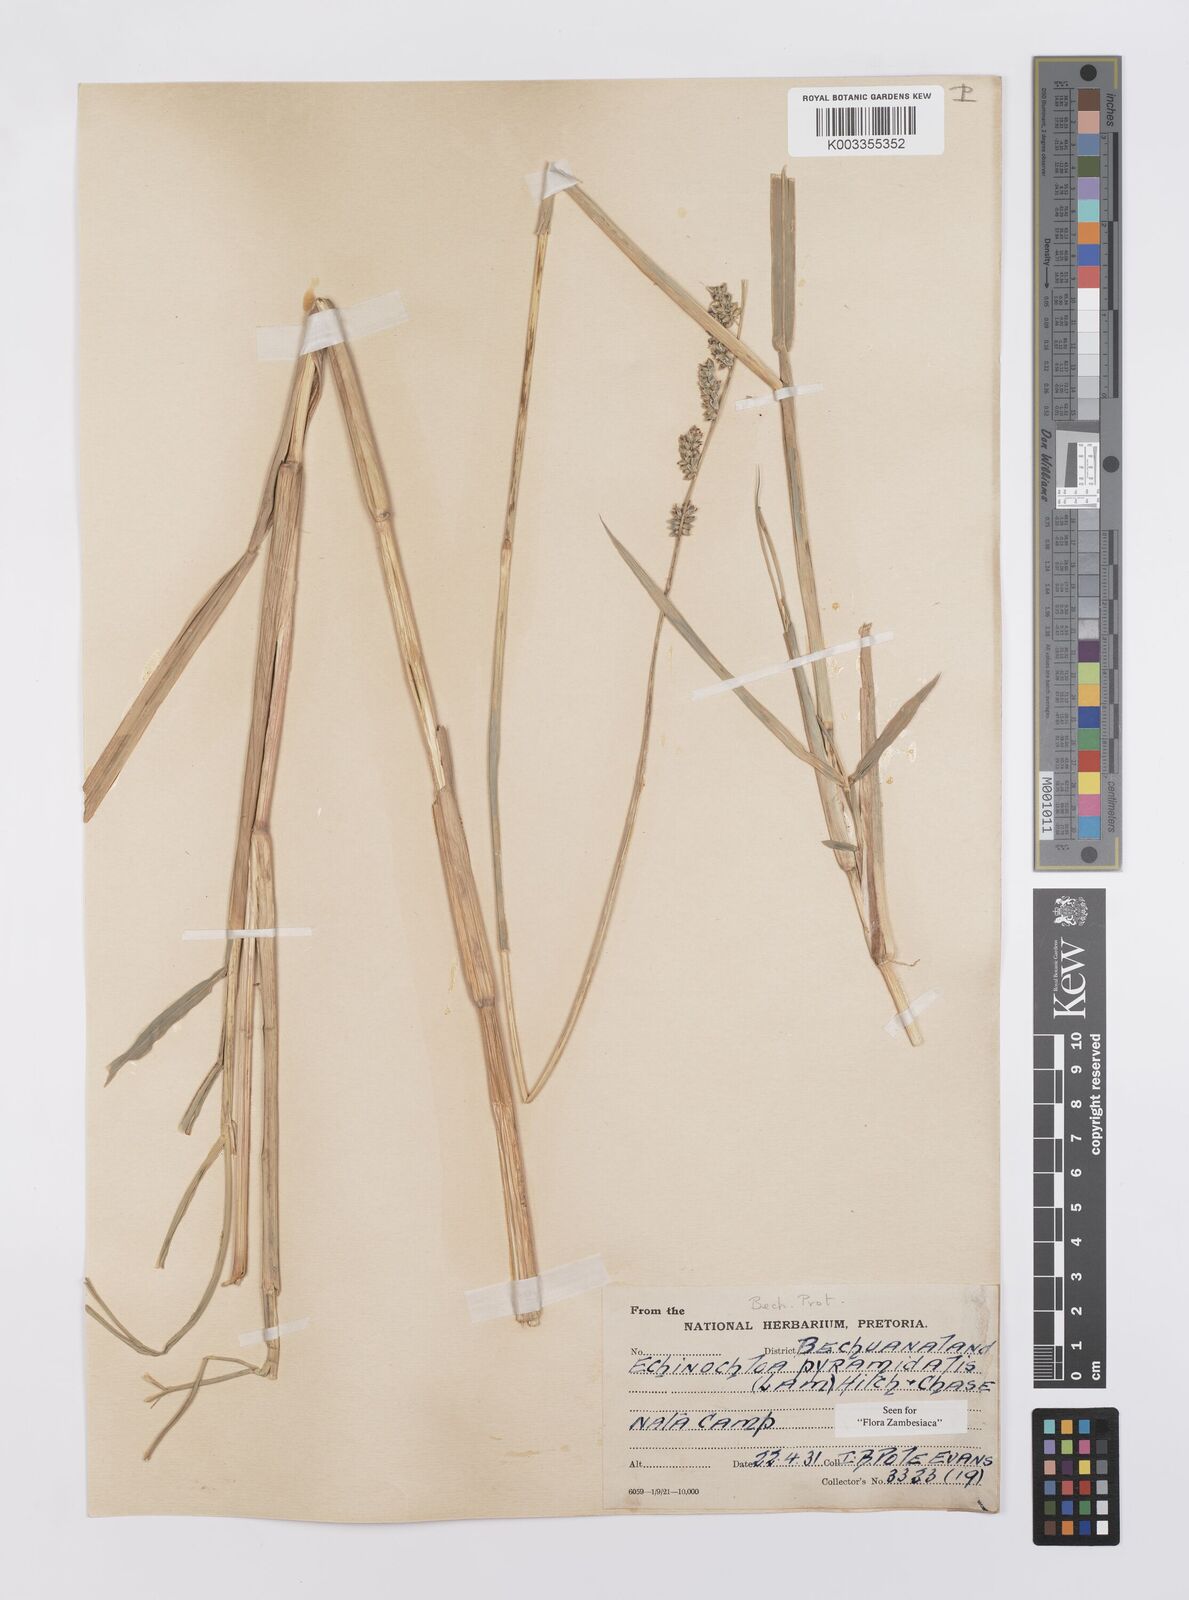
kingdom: Plantae
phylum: Tracheophyta
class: Liliopsida
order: Poales
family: Poaceae
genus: Echinochloa
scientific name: Echinochloa pyramidalis
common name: Antelope grass
